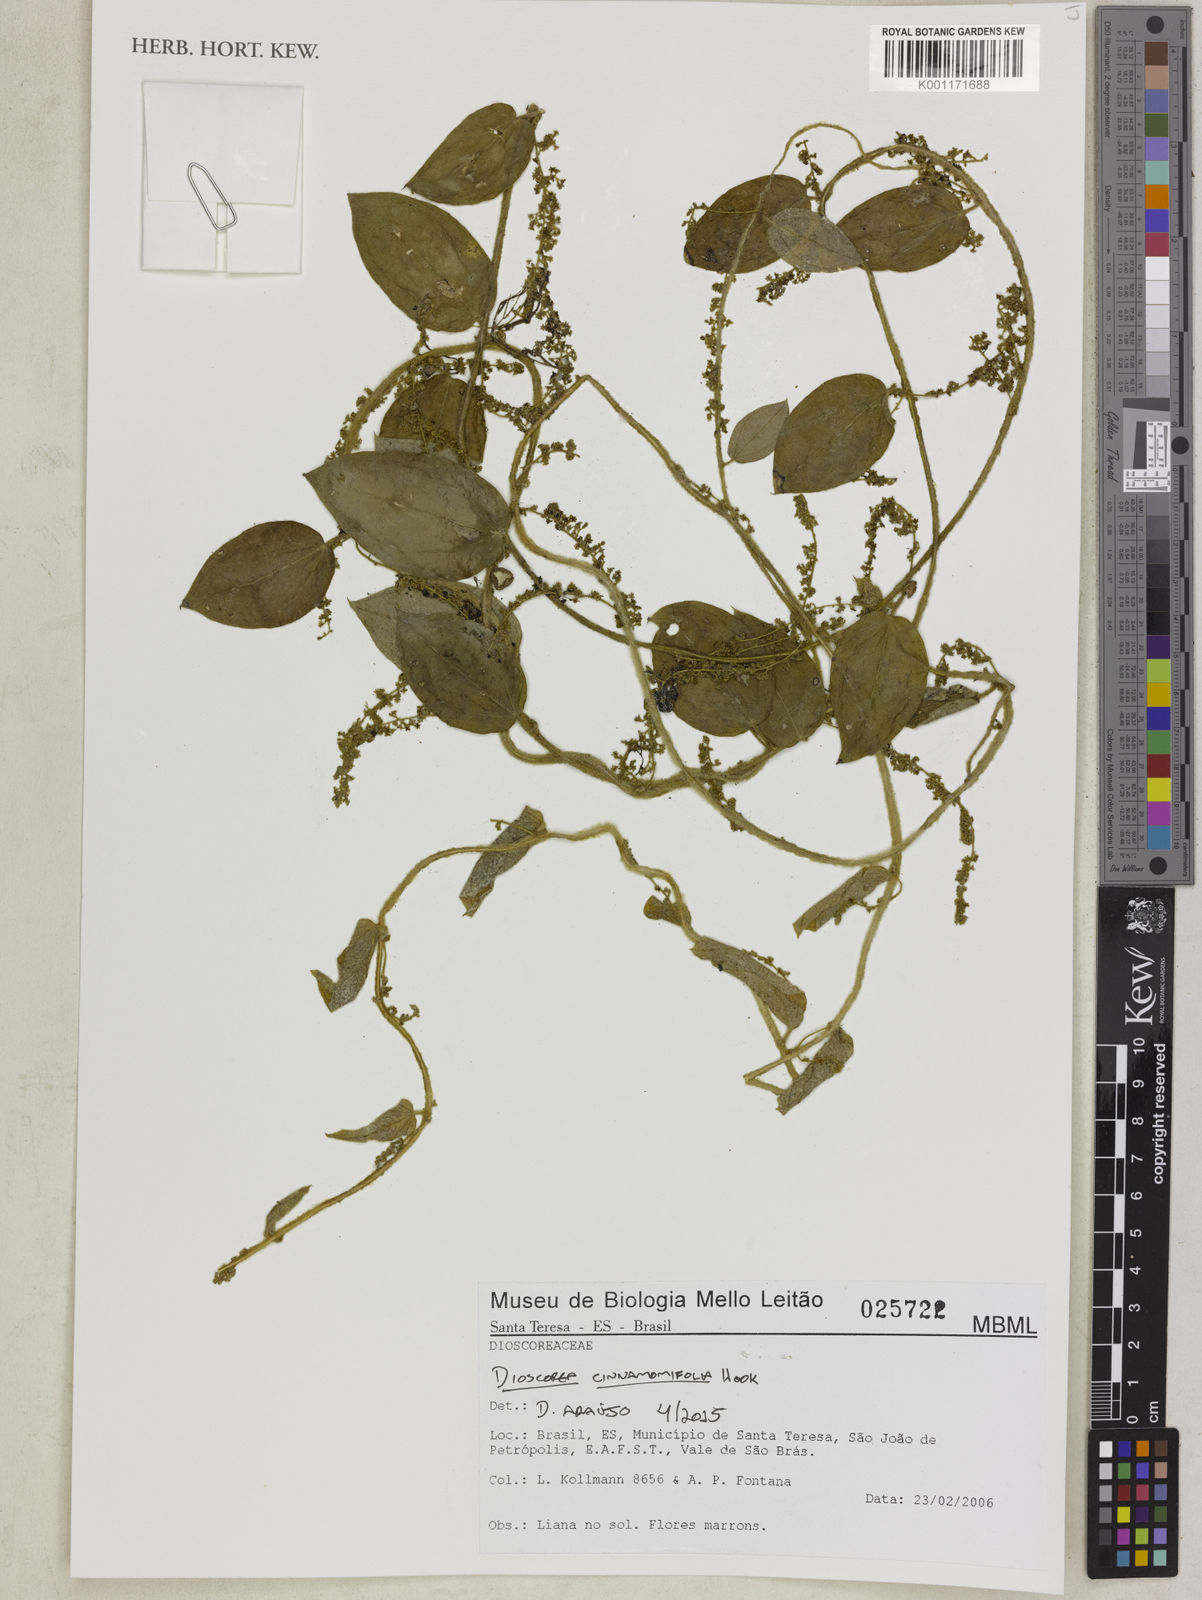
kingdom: Plantae
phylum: Tracheophyta
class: Liliopsida
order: Dioscoreales
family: Dioscoreaceae
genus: Dioscorea
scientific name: Dioscorea cinnamomifolia
